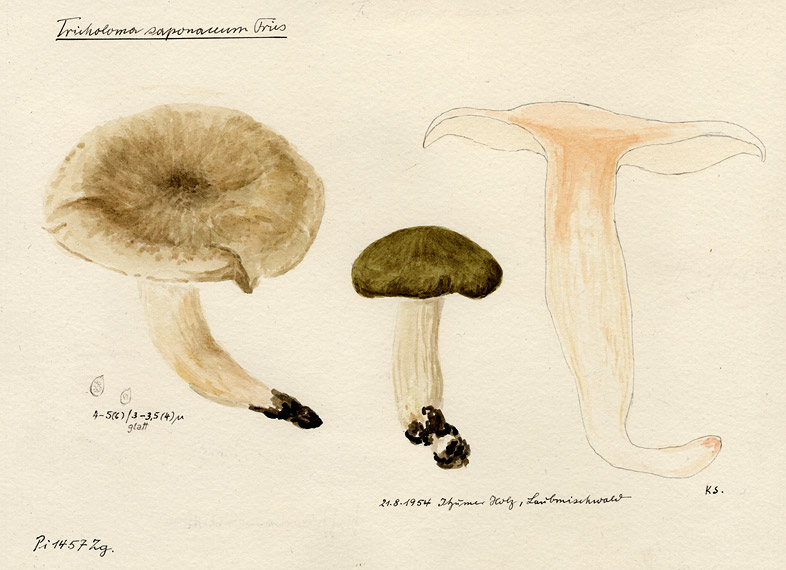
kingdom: Fungi
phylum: Basidiomycota
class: Agaricomycetes
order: Agaricales
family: Tricholomataceae
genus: Tricholoma
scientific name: Tricholoma saponaceum
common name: Soapy trich
